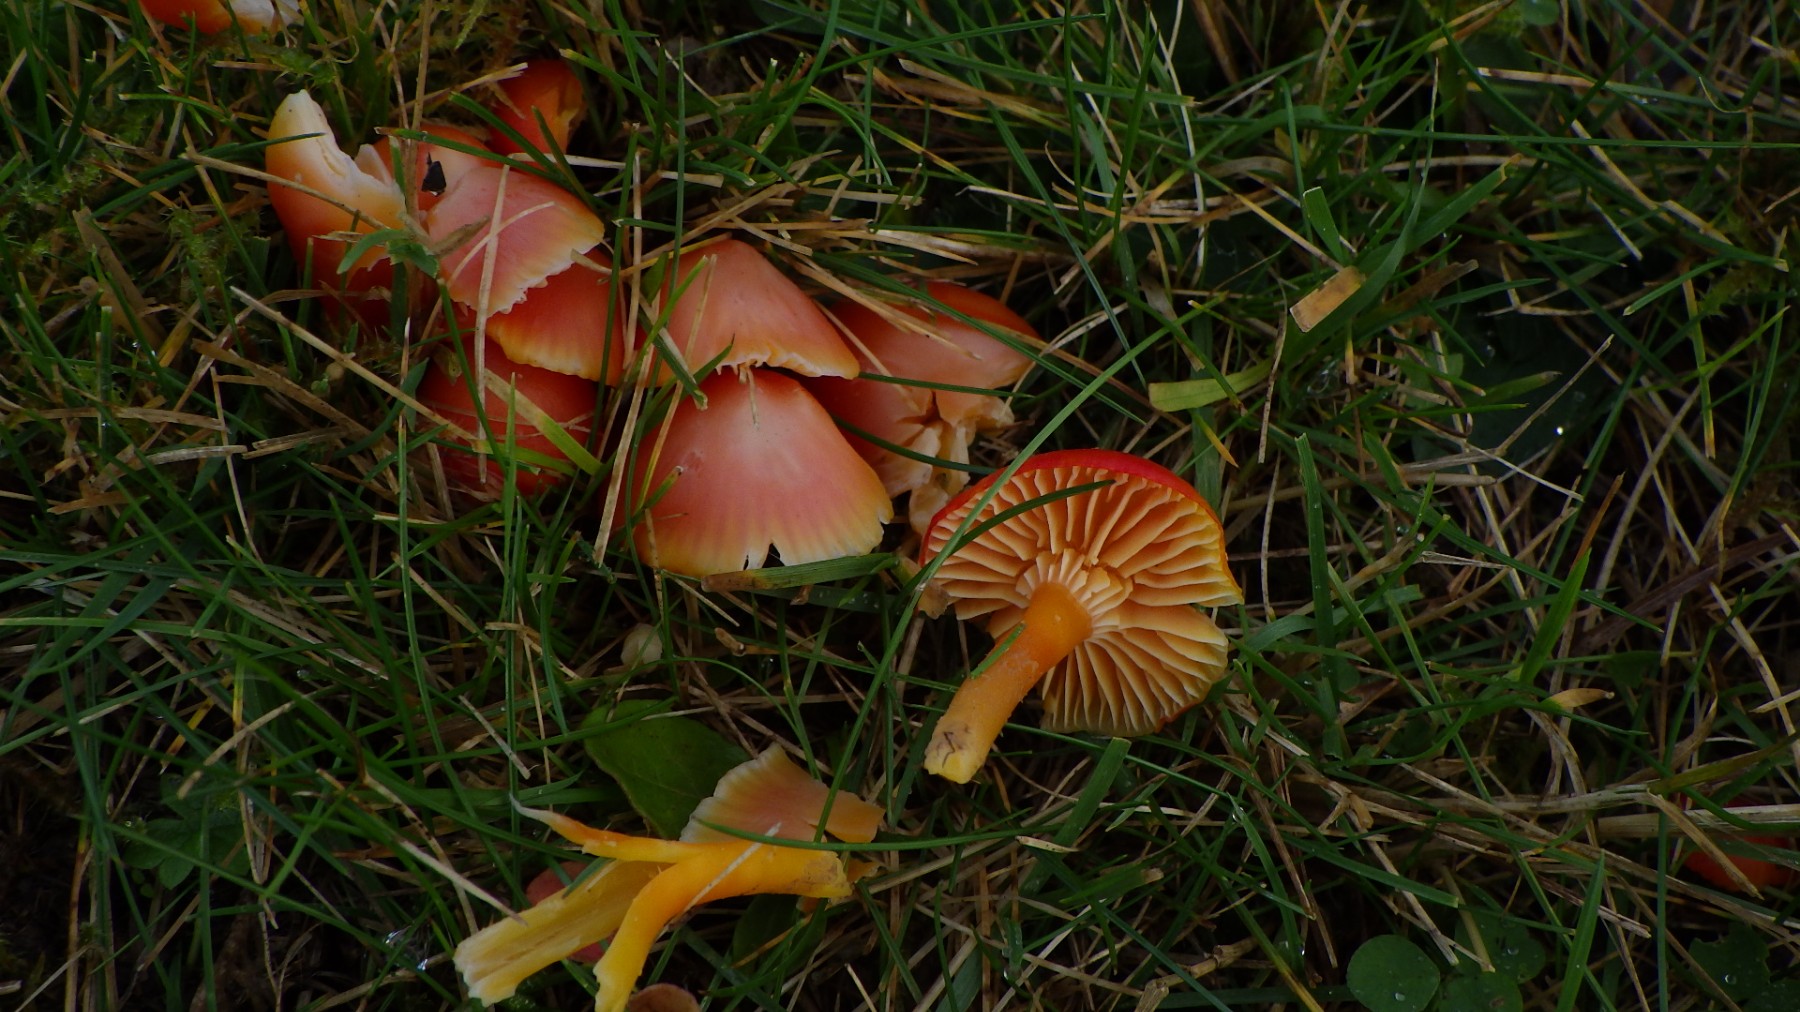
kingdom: Fungi
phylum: Basidiomycota
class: Agaricomycetes
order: Agaricales
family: Hygrophoraceae
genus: Hygrocybe
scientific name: Hygrocybe coccinea
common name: cinnober-vokshat
